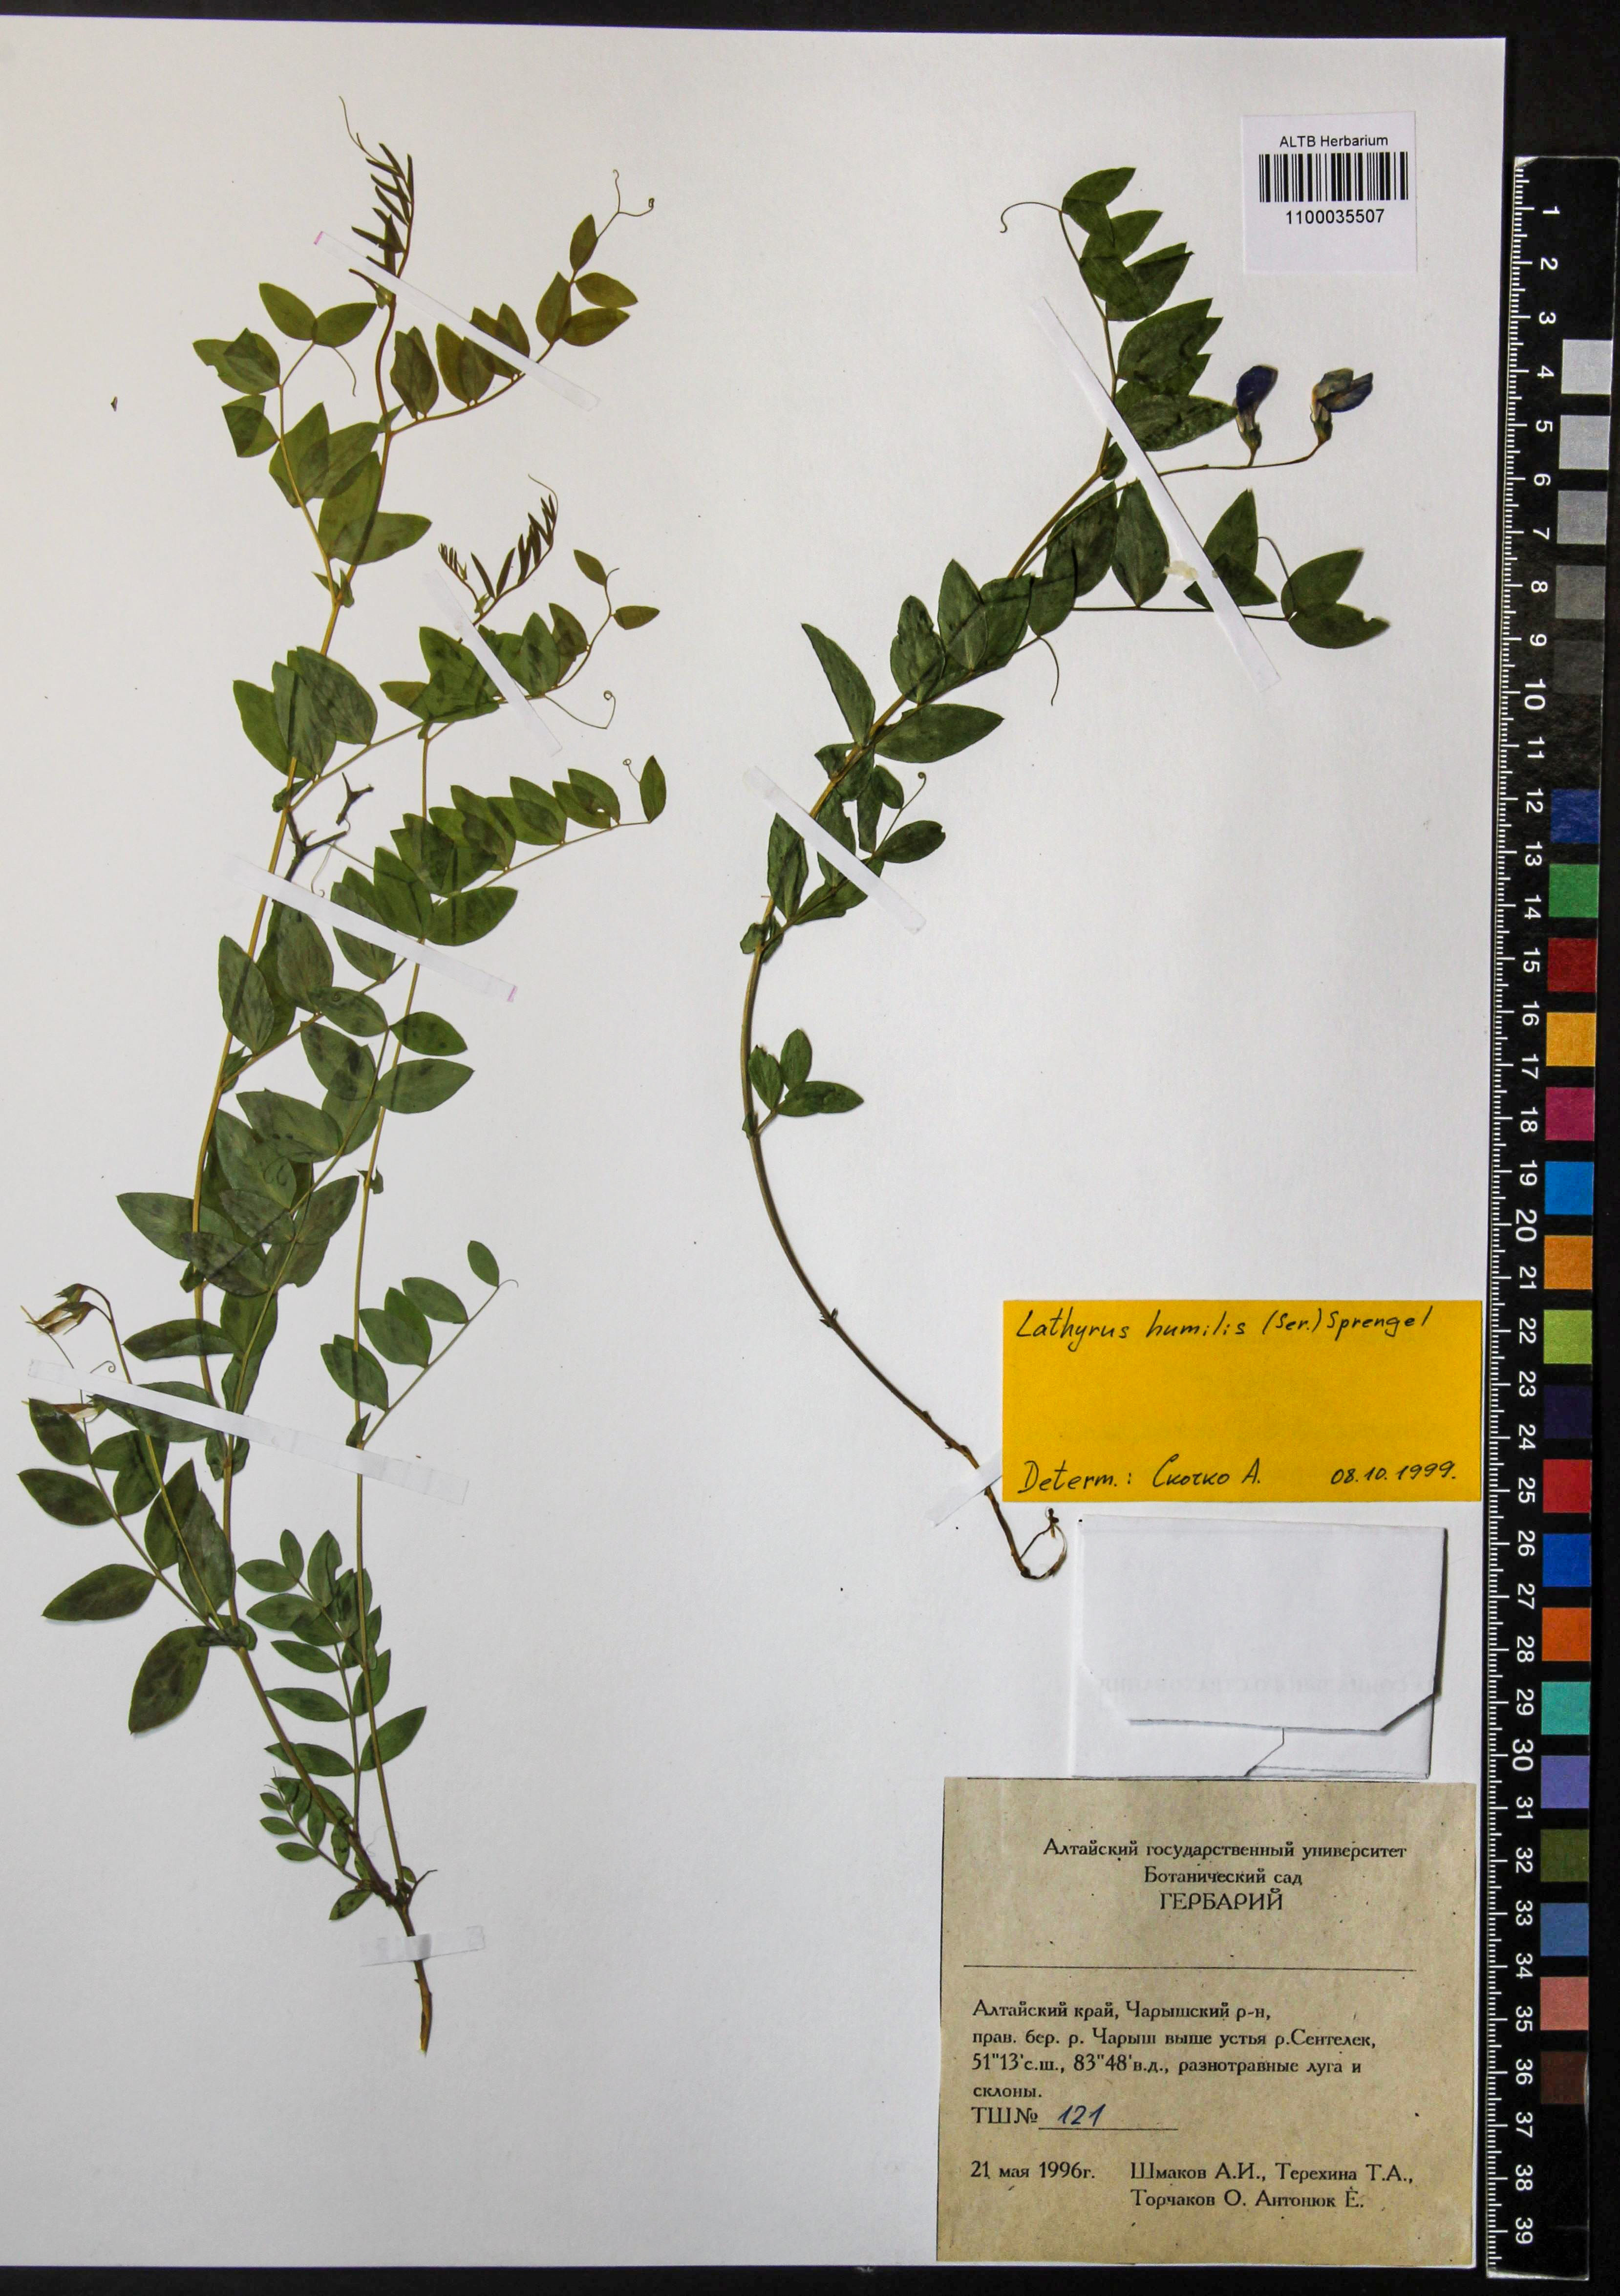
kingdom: Plantae
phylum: Tracheophyta
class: Magnoliopsida
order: Fabales
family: Fabaceae
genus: Lathyrus
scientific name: Lathyrus humilis
